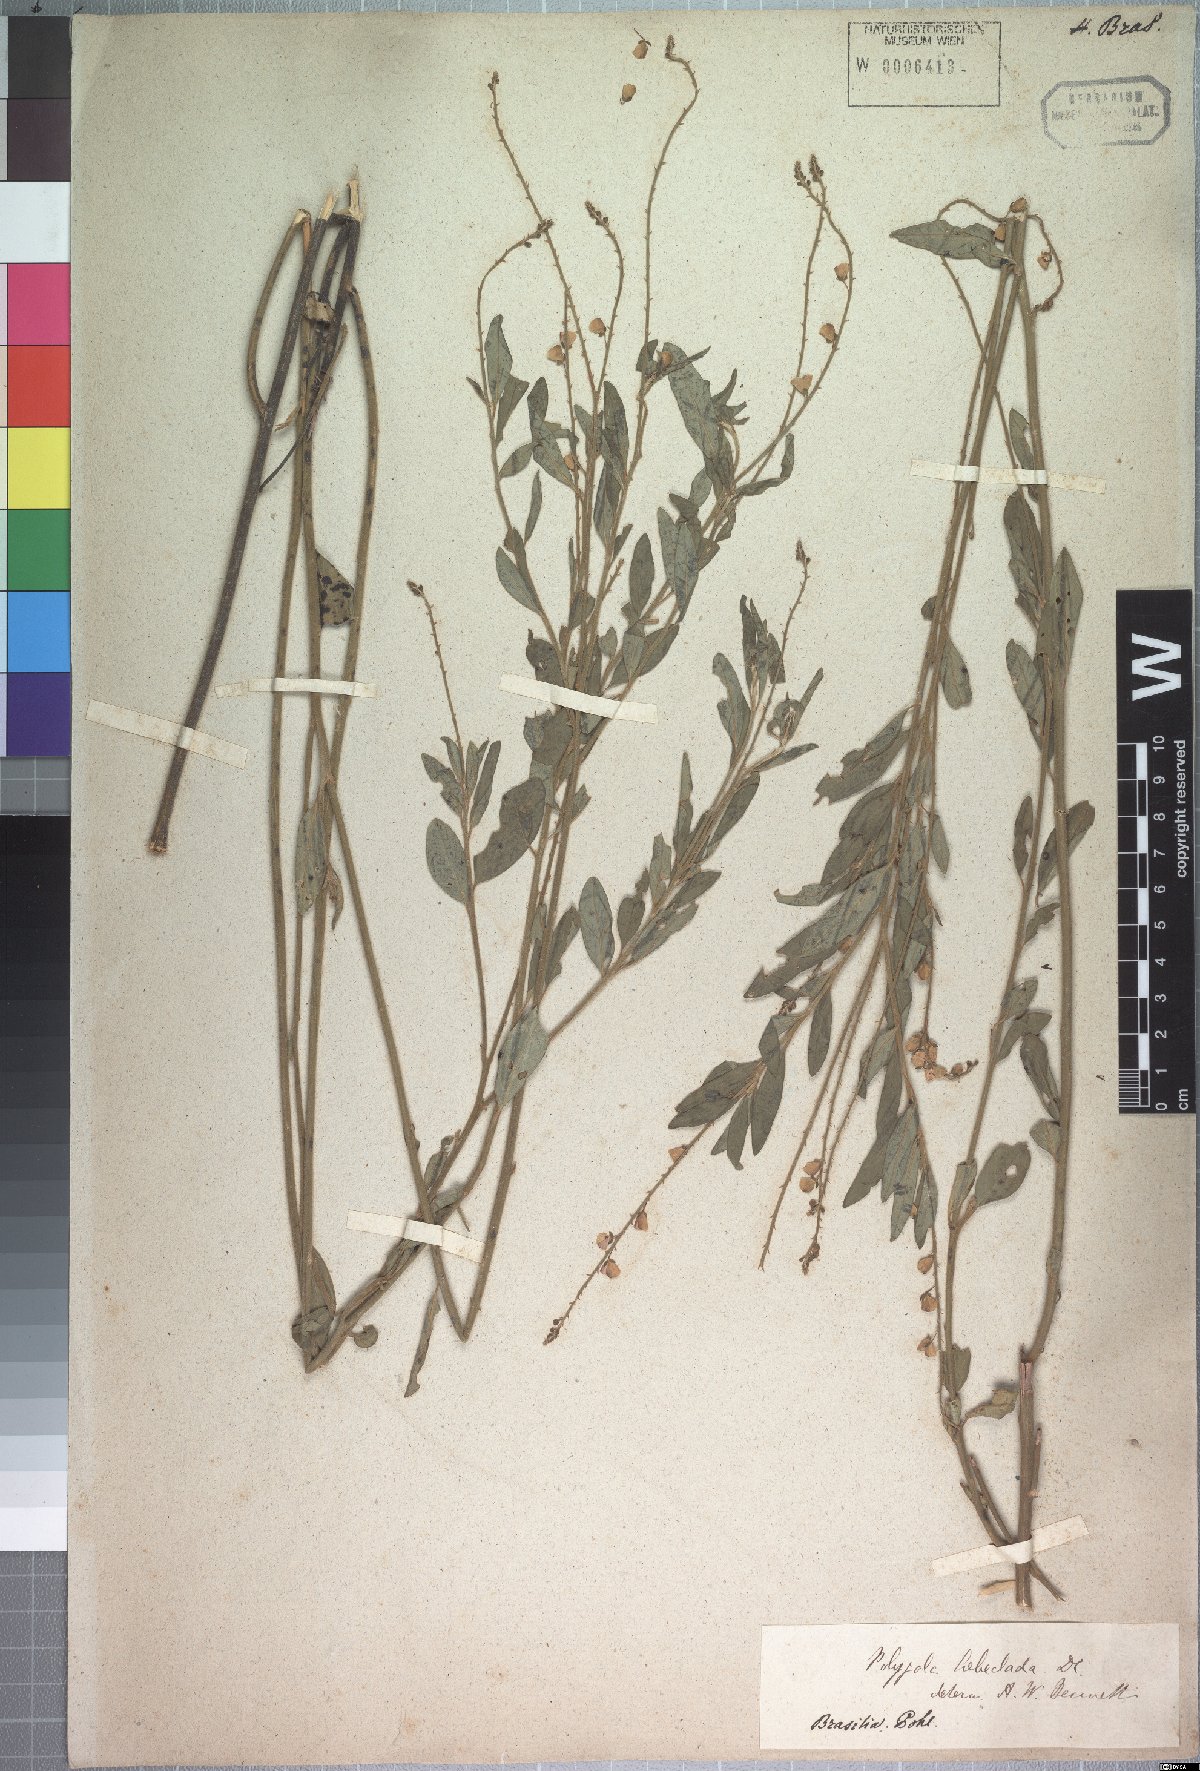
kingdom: Plantae
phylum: Tracheophyta
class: Magnoliopsida
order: Fabales
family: Polygalaceae
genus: Asemeia
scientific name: Asemeia rhodoptera
